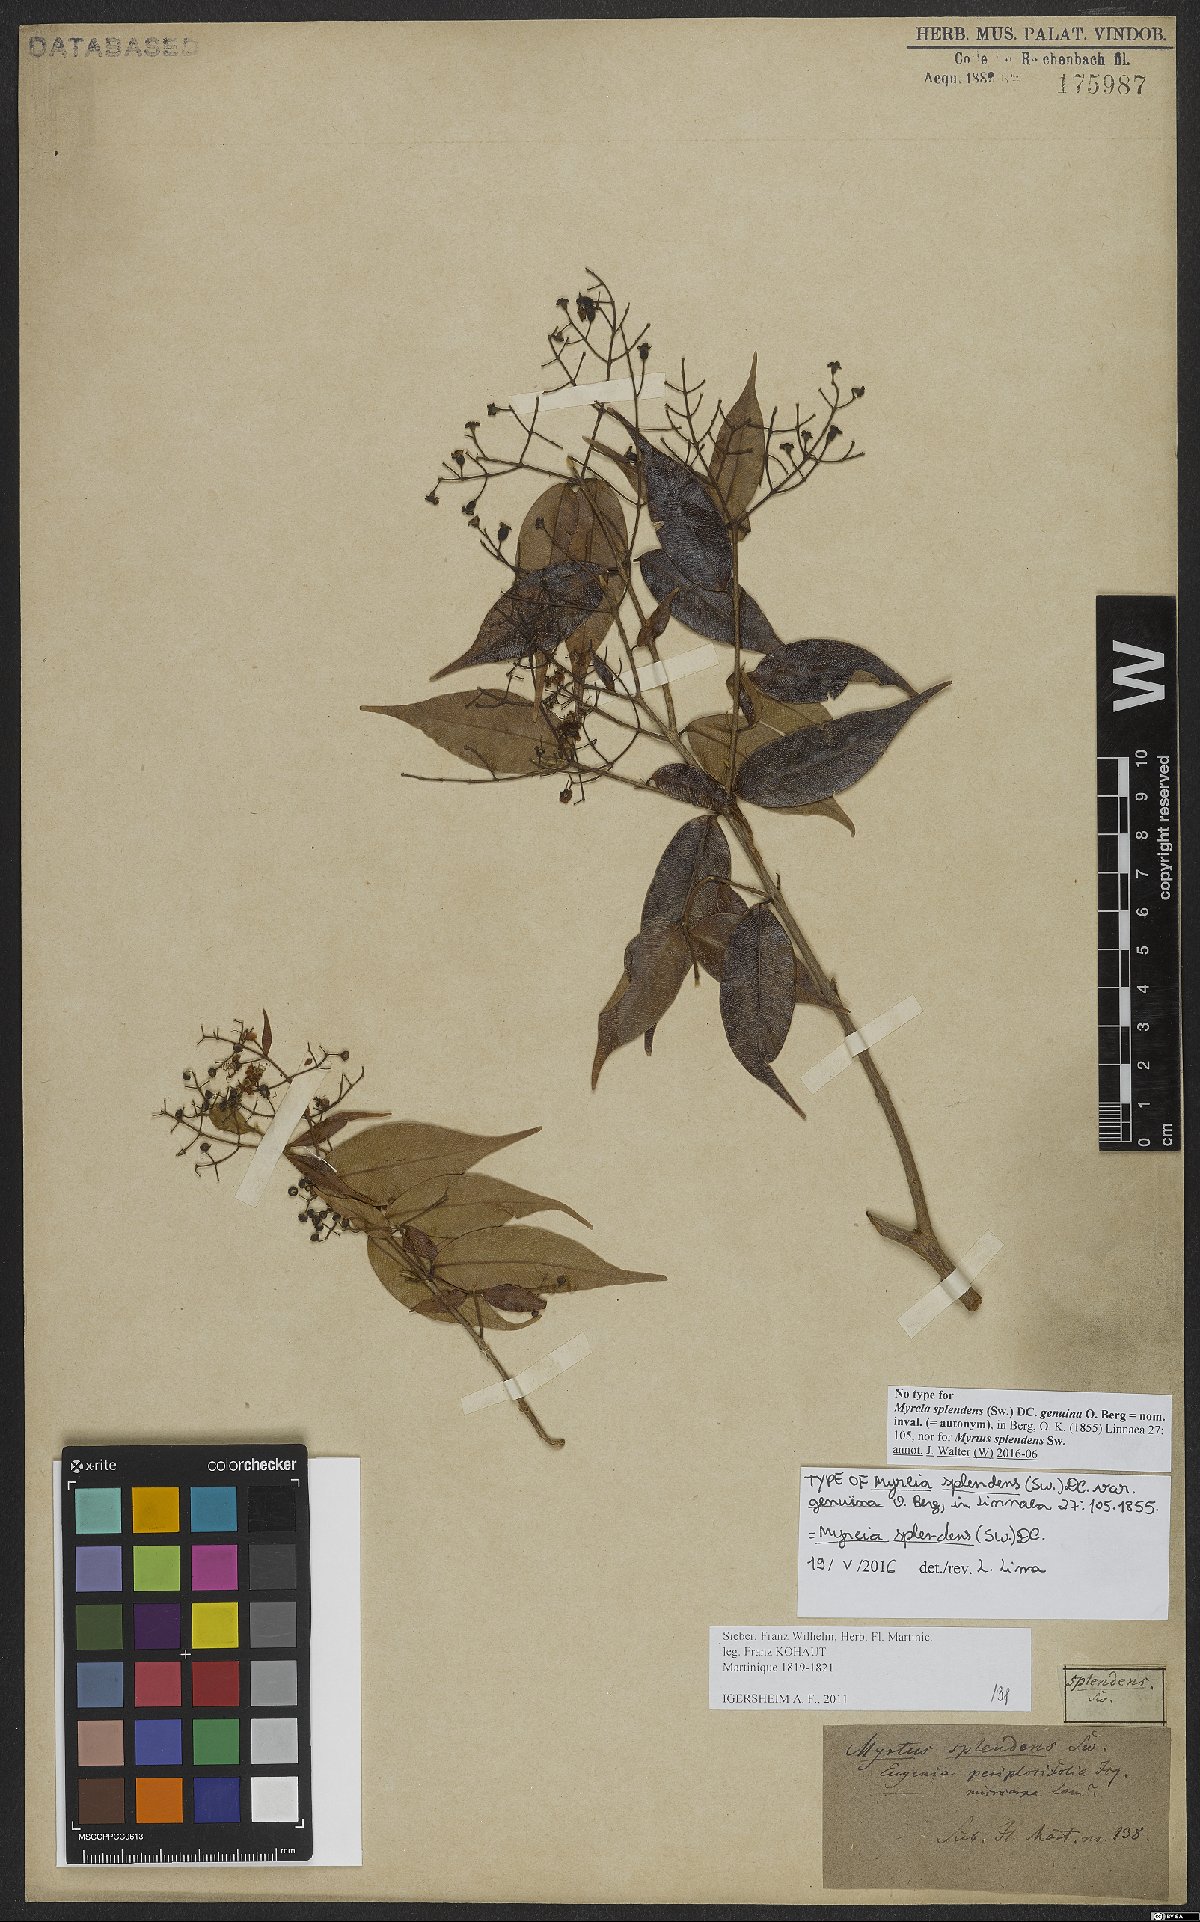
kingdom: Plantae
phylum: Tracheophyta
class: Magnoliopsida
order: Myrtales
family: Myrtaceae
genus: Myrcia
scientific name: Myrcia splendens
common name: Surinam cherry
